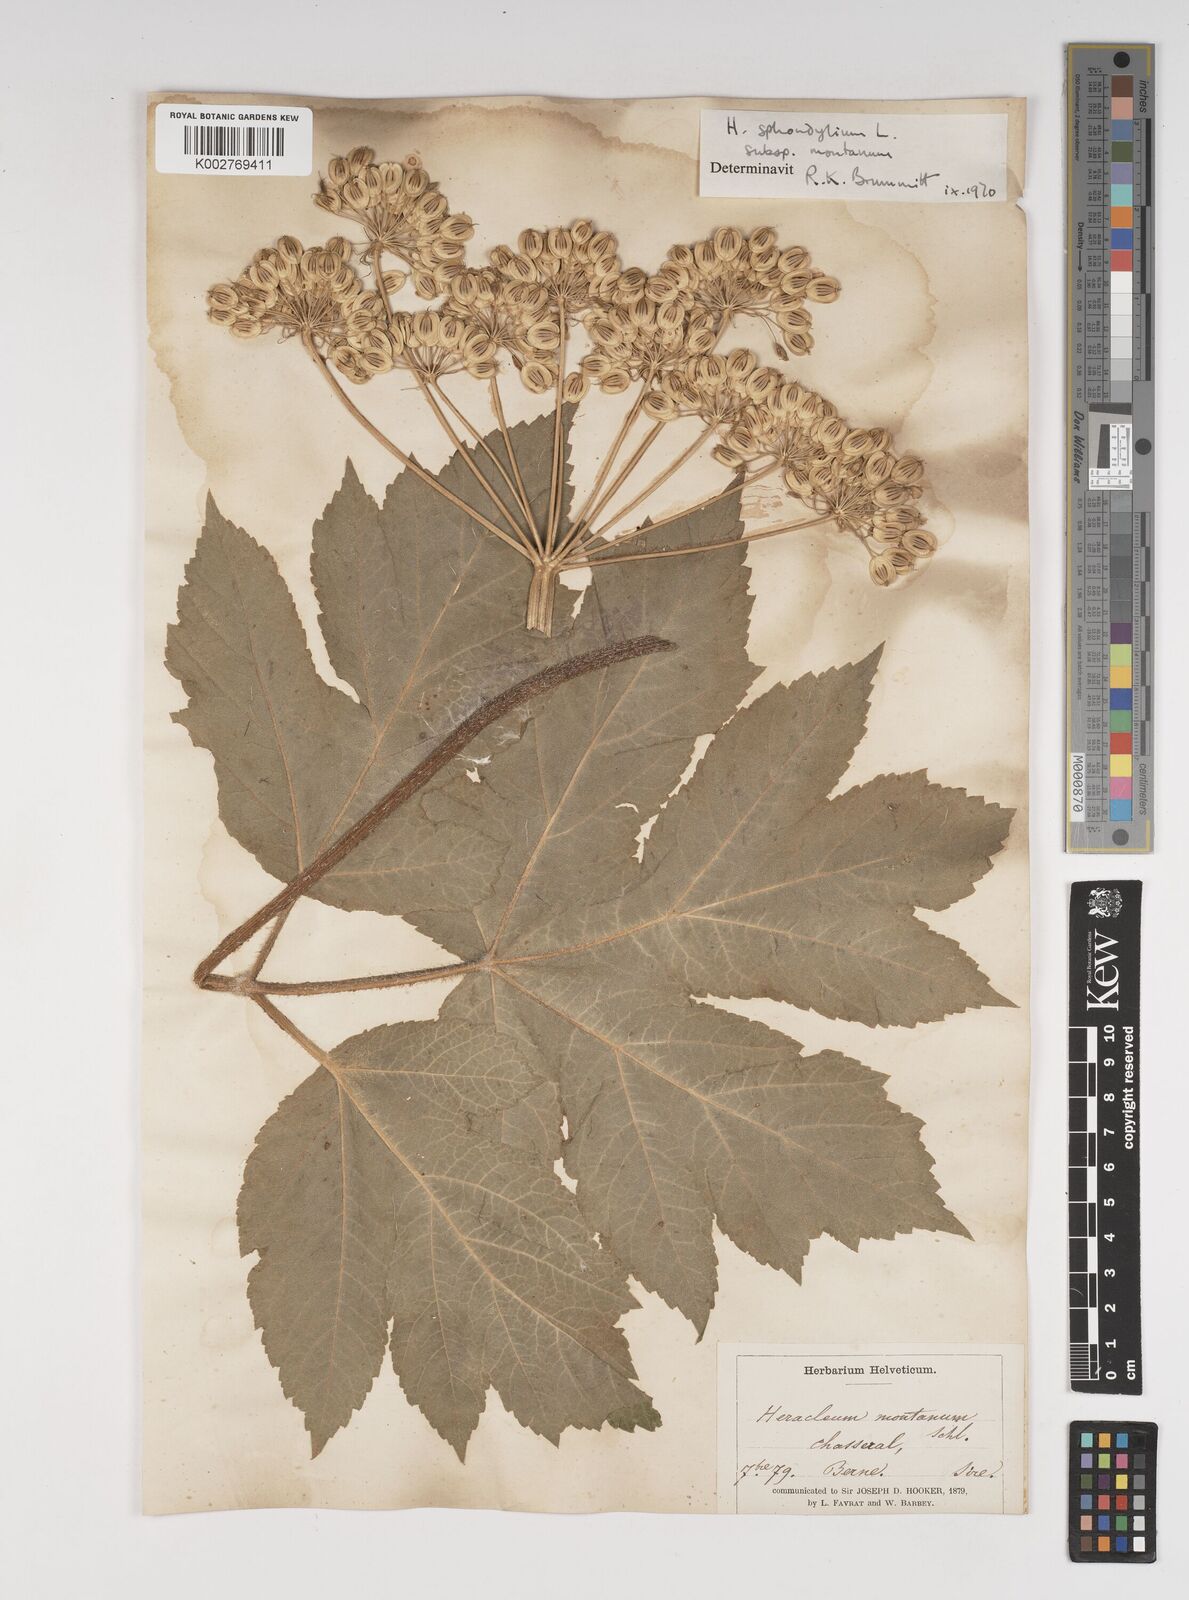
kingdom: Plantae
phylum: Tracheophyta
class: Magnoliopsida
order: Apiales
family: Apiaceae
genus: Heracleum
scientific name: Heracleum sphondylium
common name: Hogweed
